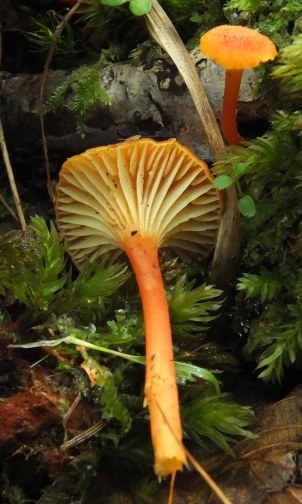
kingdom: Fungi
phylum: Basidiomycota
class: Agaricomycetes
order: Agaricales
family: Hygrophoraceae
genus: Hygrocybe
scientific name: Hygrocybe cantharellus
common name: kantarel-vokshat
